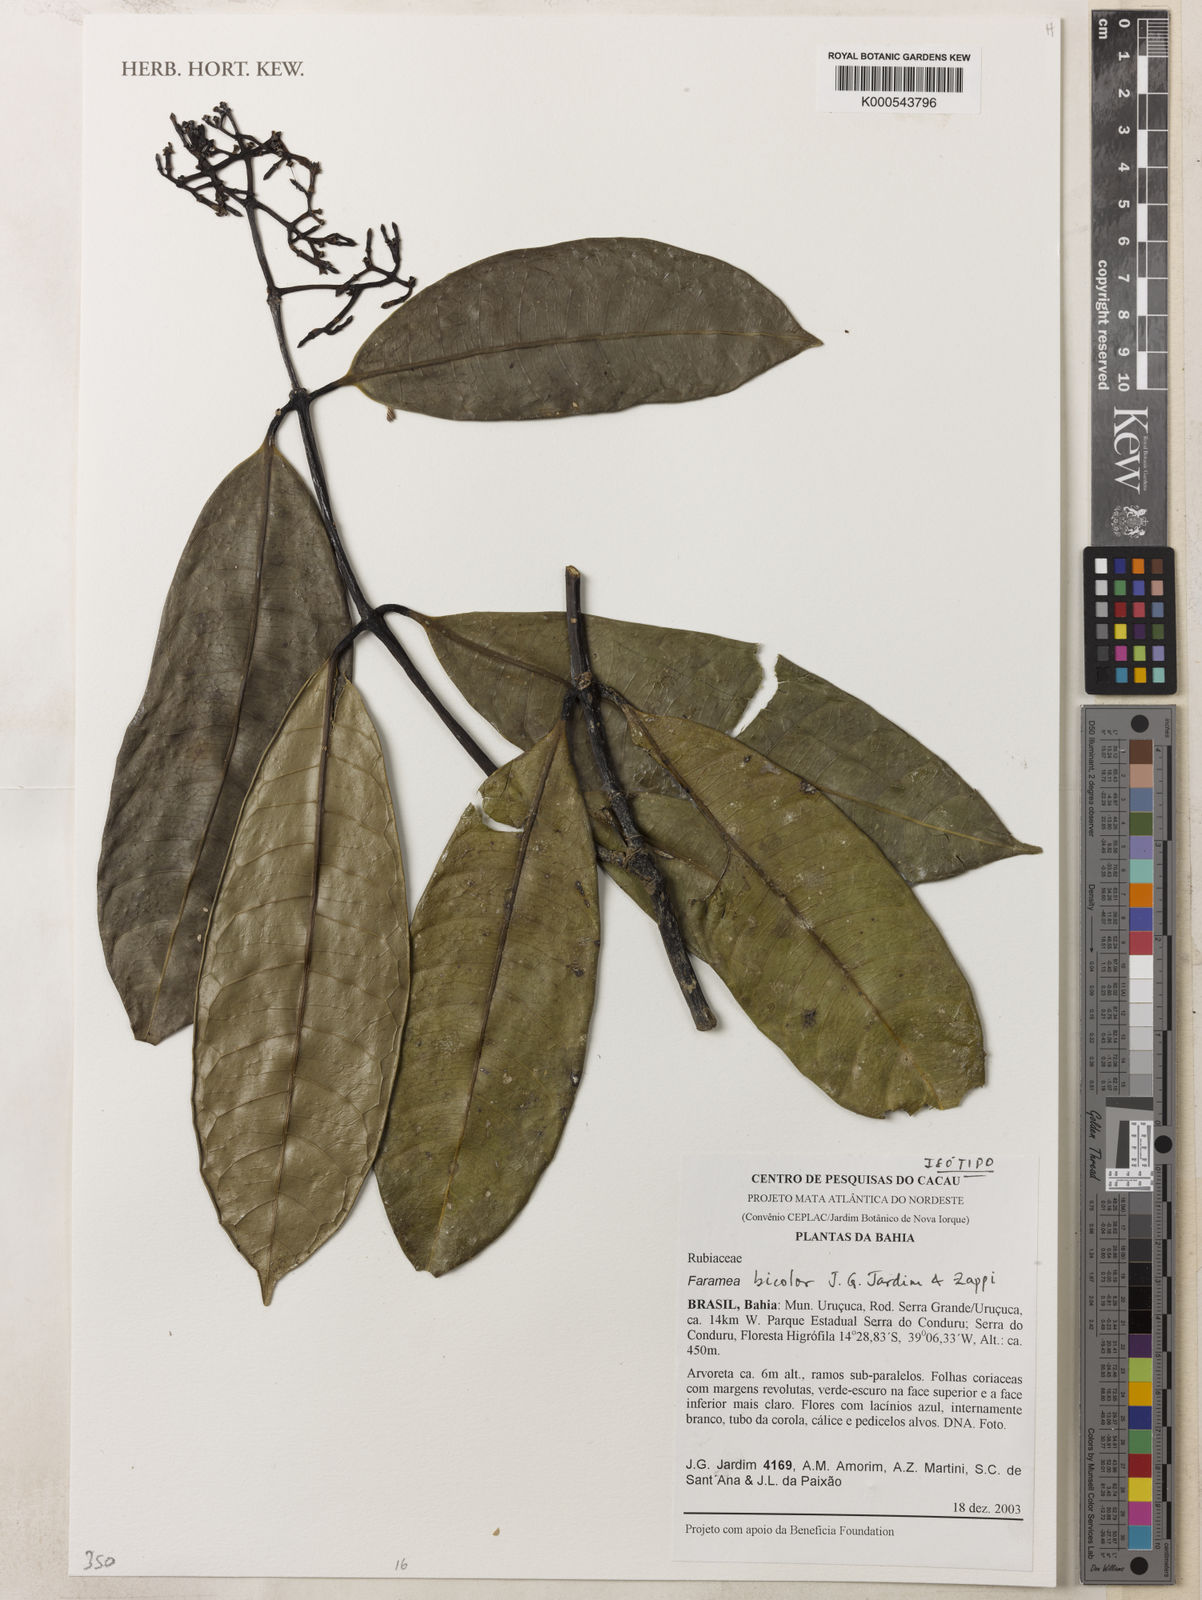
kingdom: Plantae
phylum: Tracheophyta
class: Magnoliopsida
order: Gentianales
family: Rubiaceae
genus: Faramea
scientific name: Faramea bicolor
